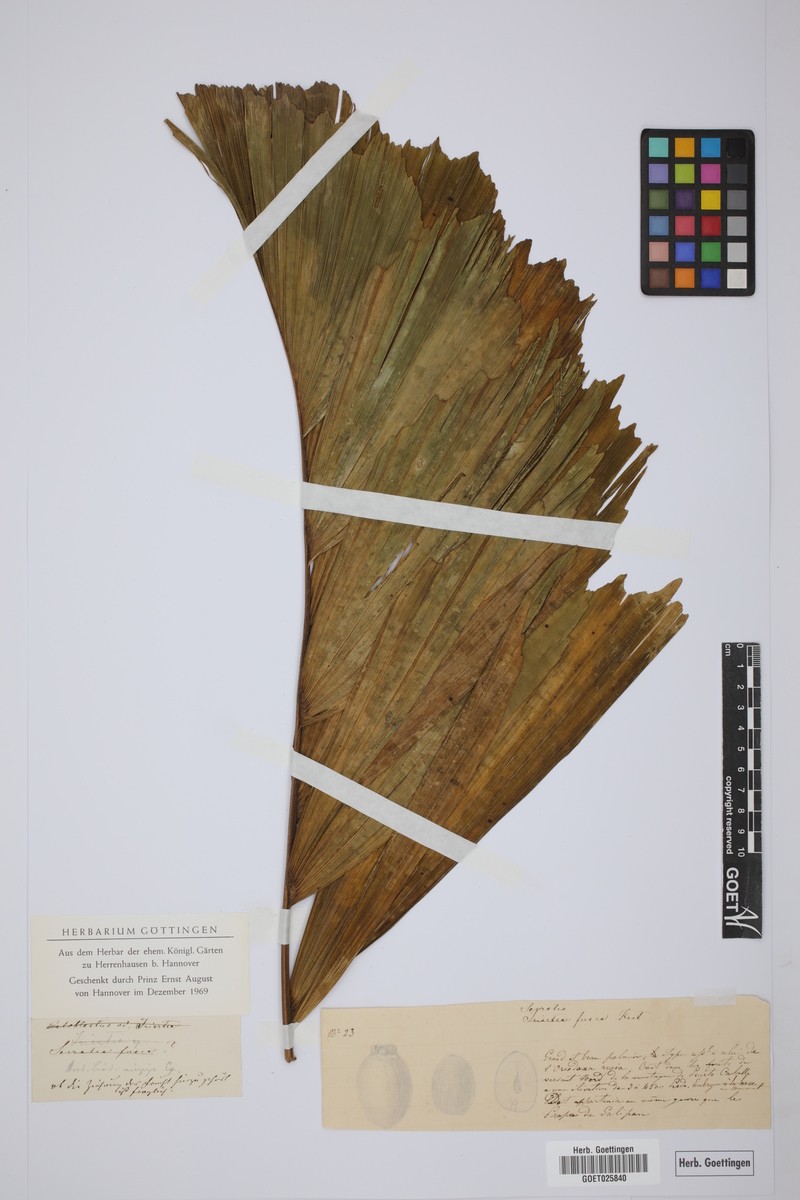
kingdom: Plantae
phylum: Tracheophyta
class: Liliopsida
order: Arecales
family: Arecaceae
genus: Dictyocaryum
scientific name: Dictyocaryum fuscum
